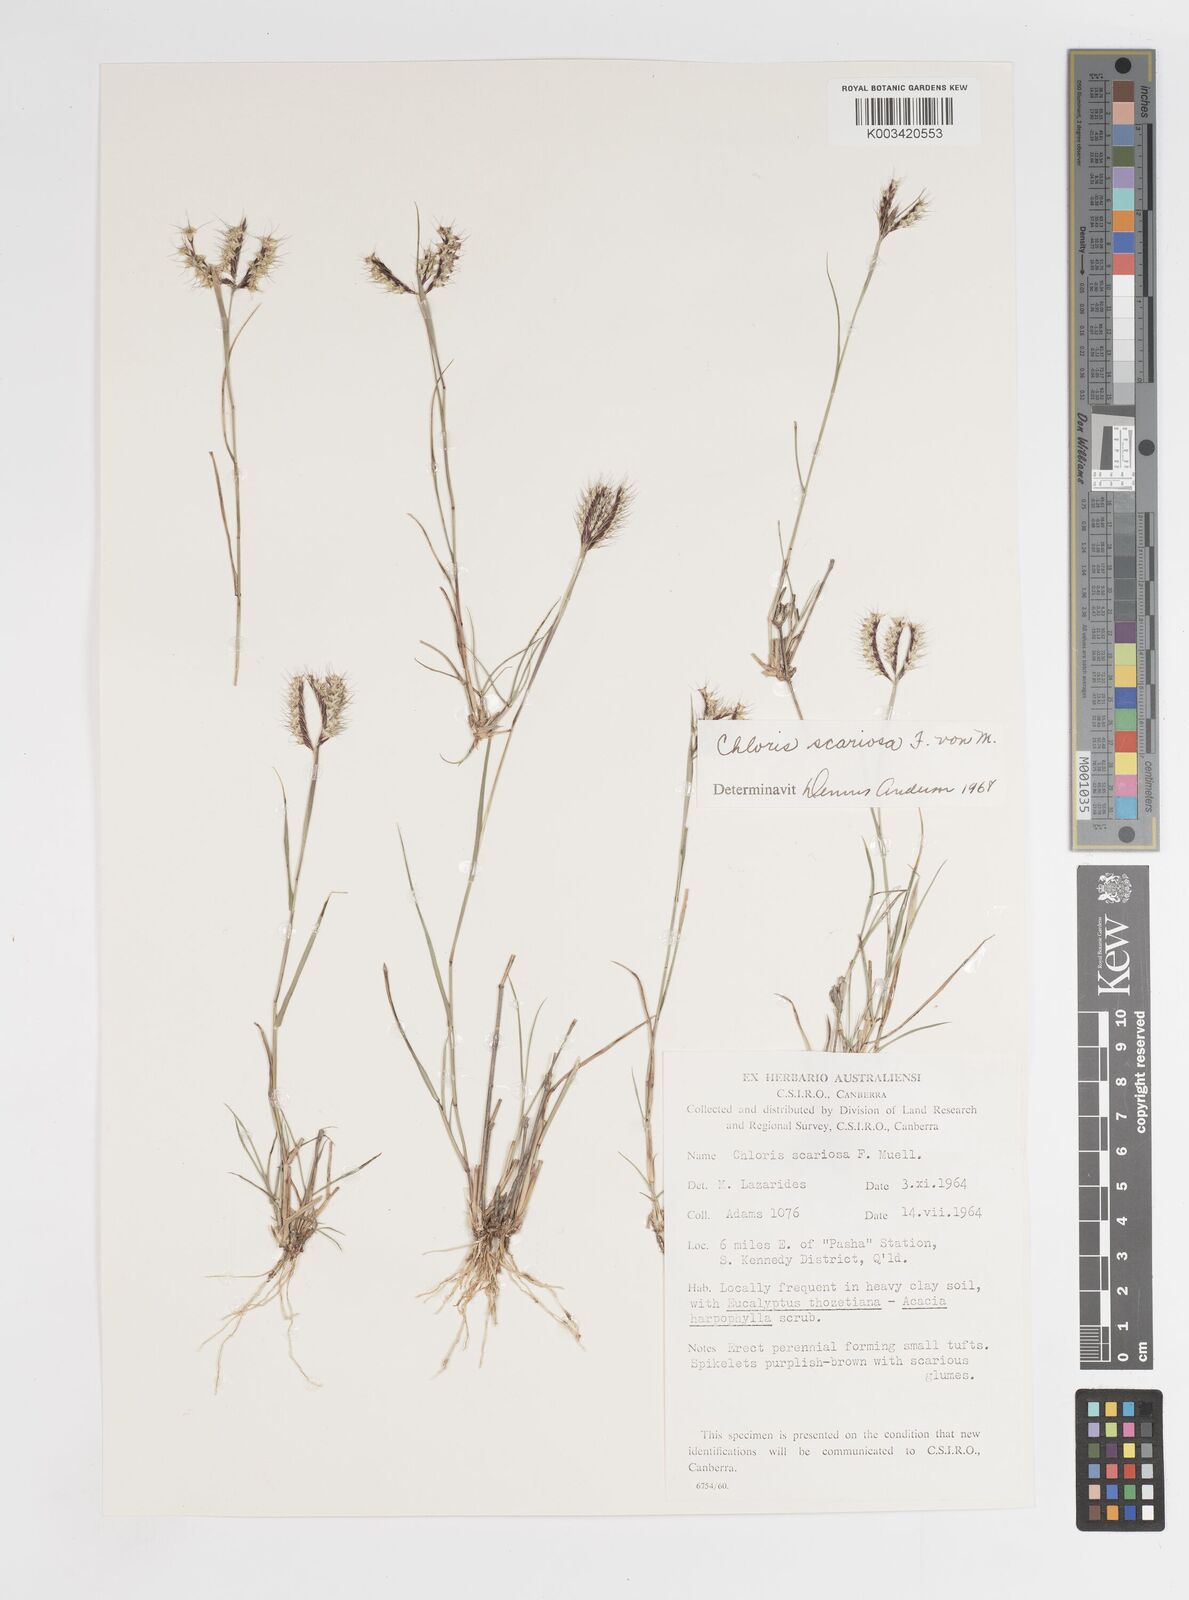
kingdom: Plantae
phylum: Tracheophyta
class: Liliopsida
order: Poales
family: Poaceae
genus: Oxychloris
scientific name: Oxychloris scariosa
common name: Winged windmill grass
